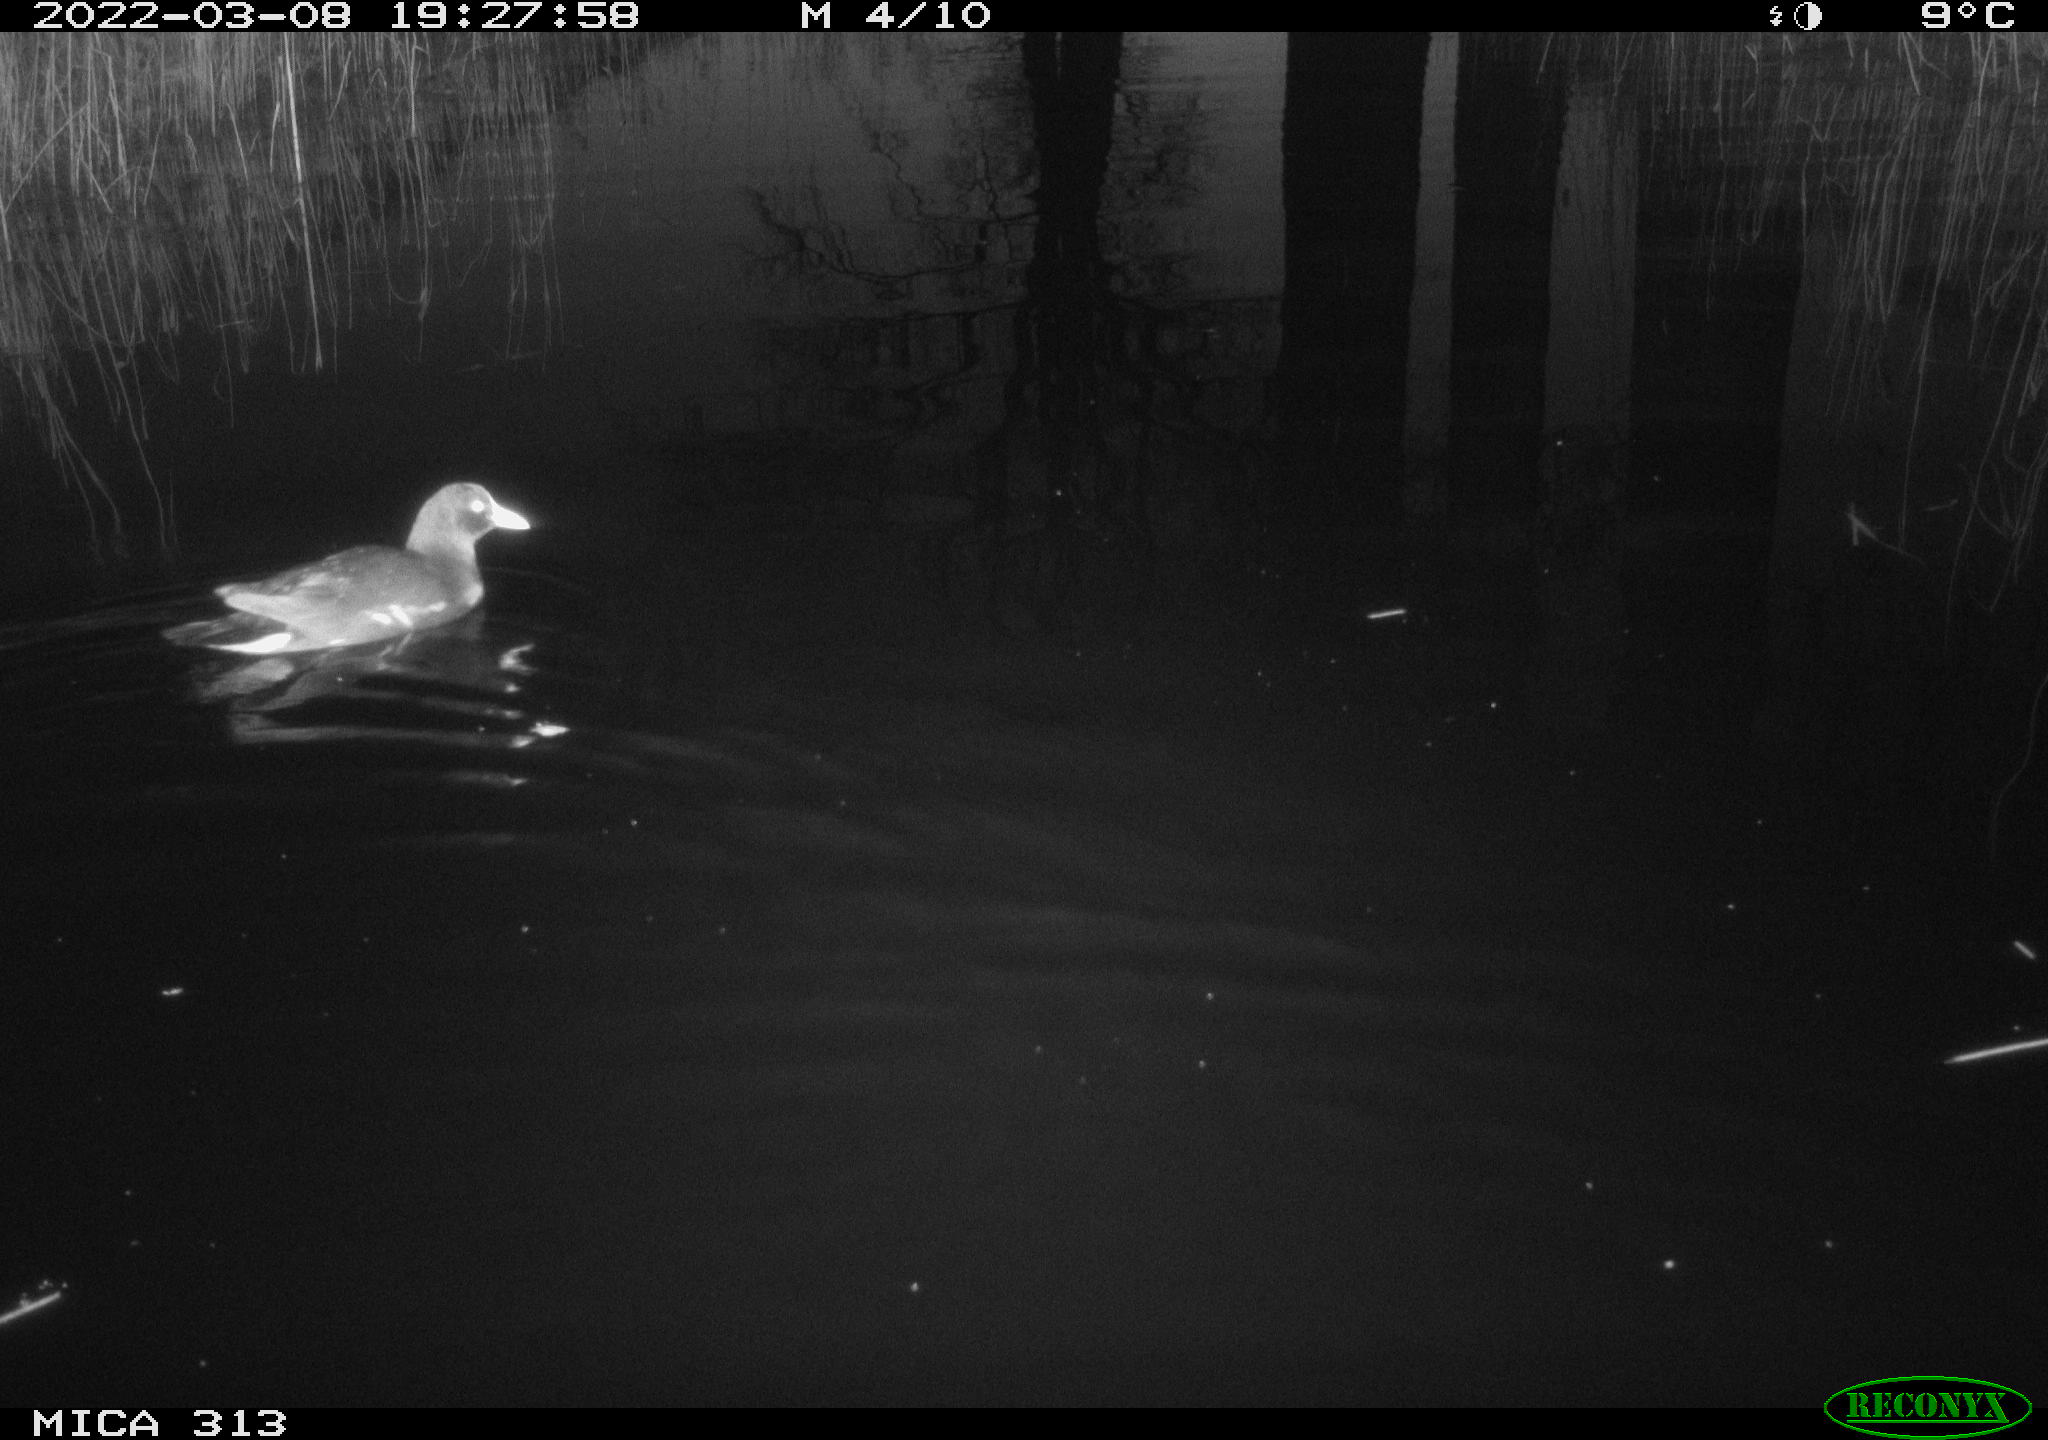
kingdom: Animalia
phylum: Chordata
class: Aves
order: Gruiformes
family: Rallidae
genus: Gallinula
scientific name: Gallinula chloropus
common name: Common moorhen
